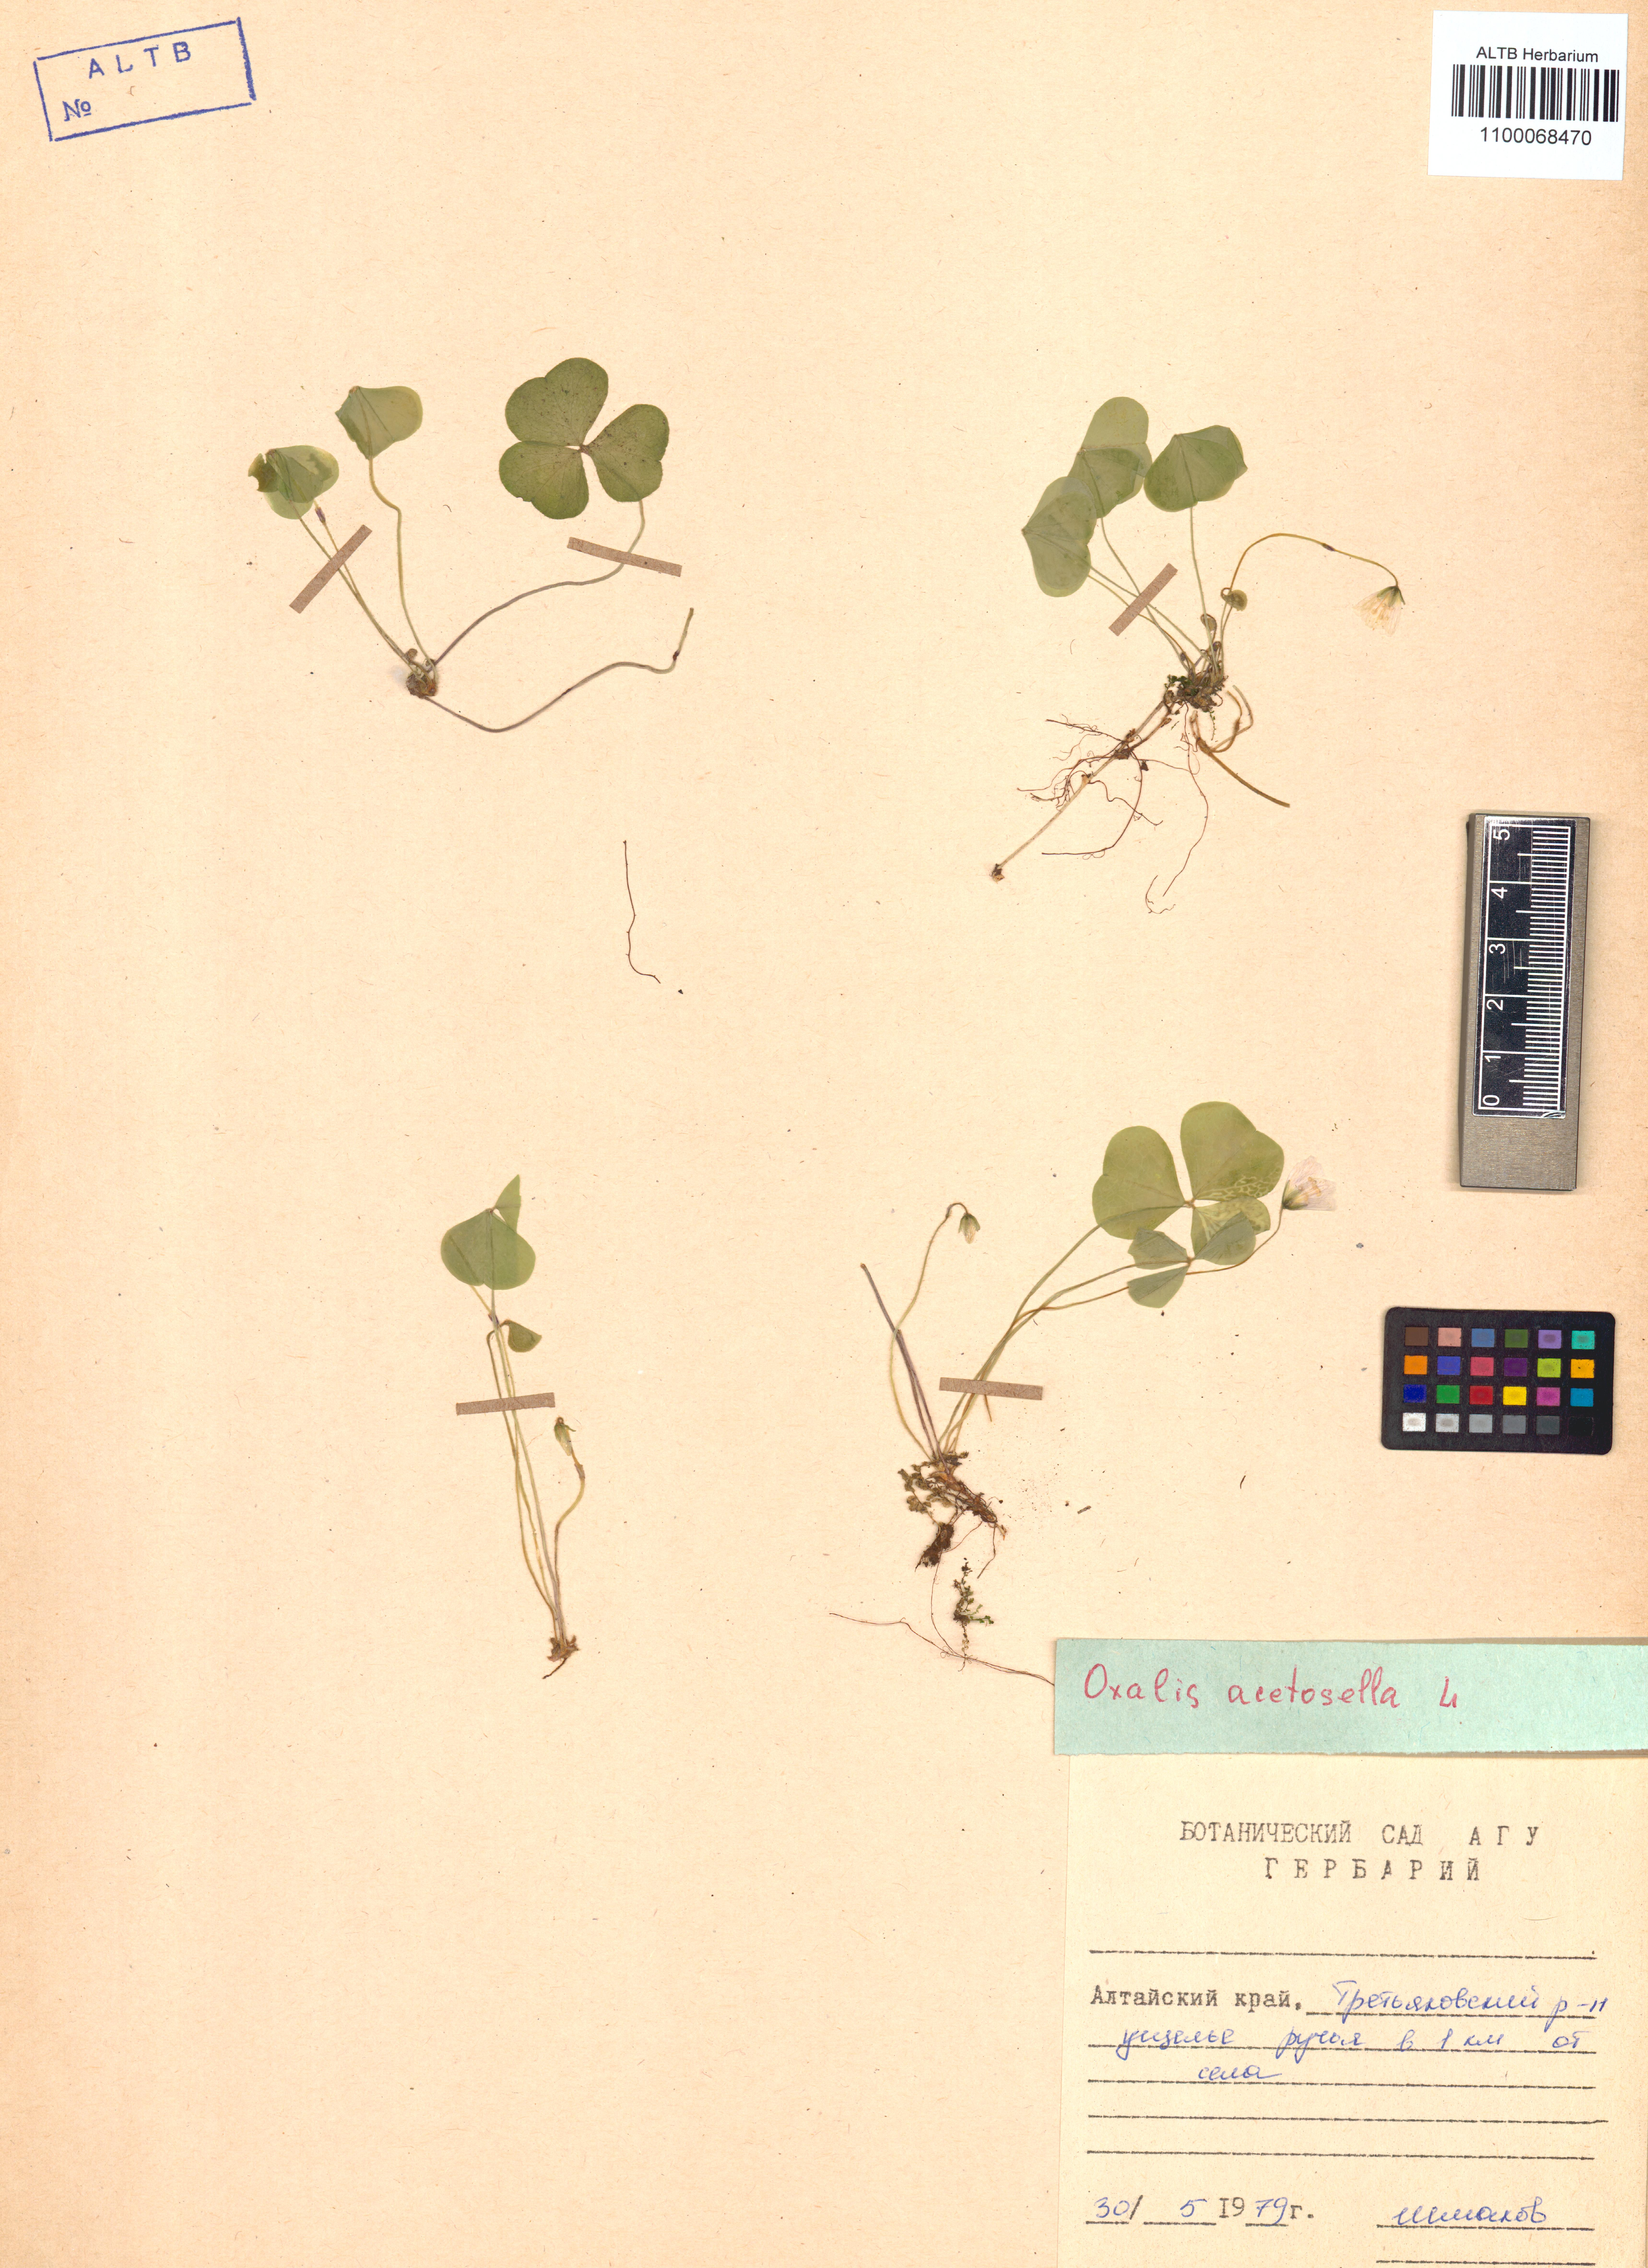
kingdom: Plantae
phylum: Tracheophyta
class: Magnoliopsida
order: Oxalidales
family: Oxalidaceae
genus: Oxalis
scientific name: Oxalis acetosella
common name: Wood-sorrel
